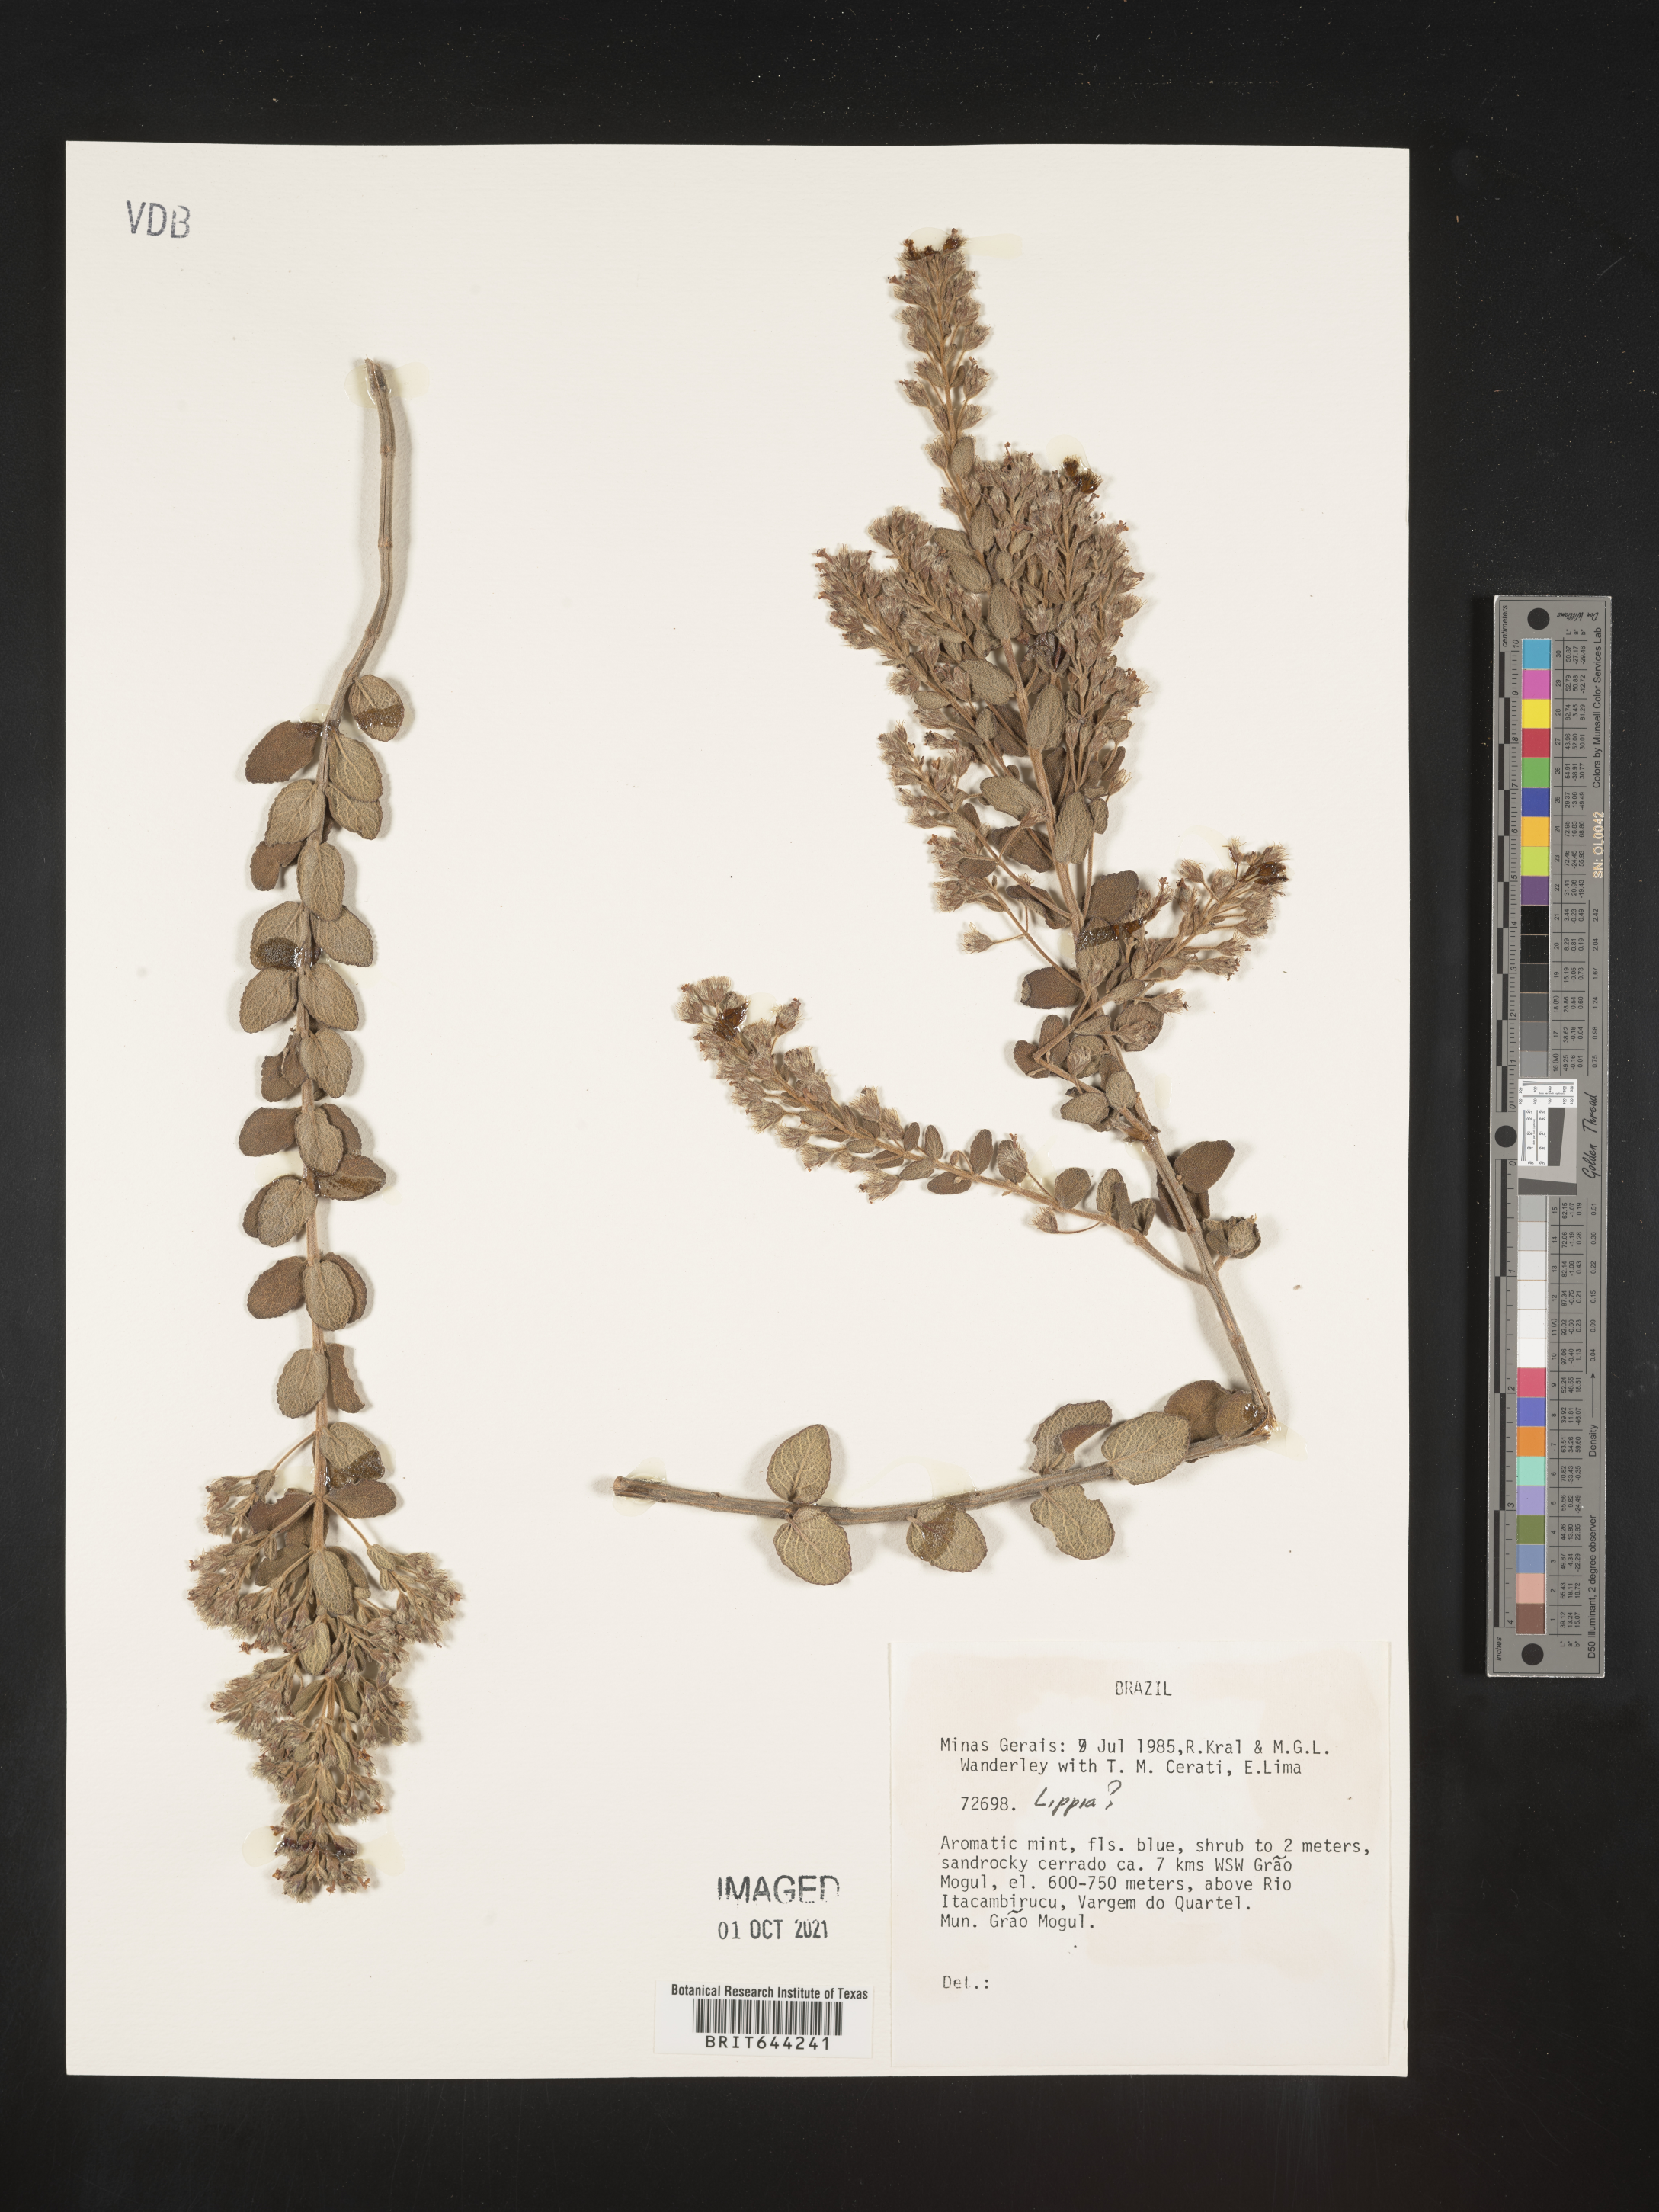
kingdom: Plantae
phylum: Tracheophyta
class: Magnoliopsida
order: Lamiales
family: Verbenaceae
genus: Lippia
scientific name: Lippia
